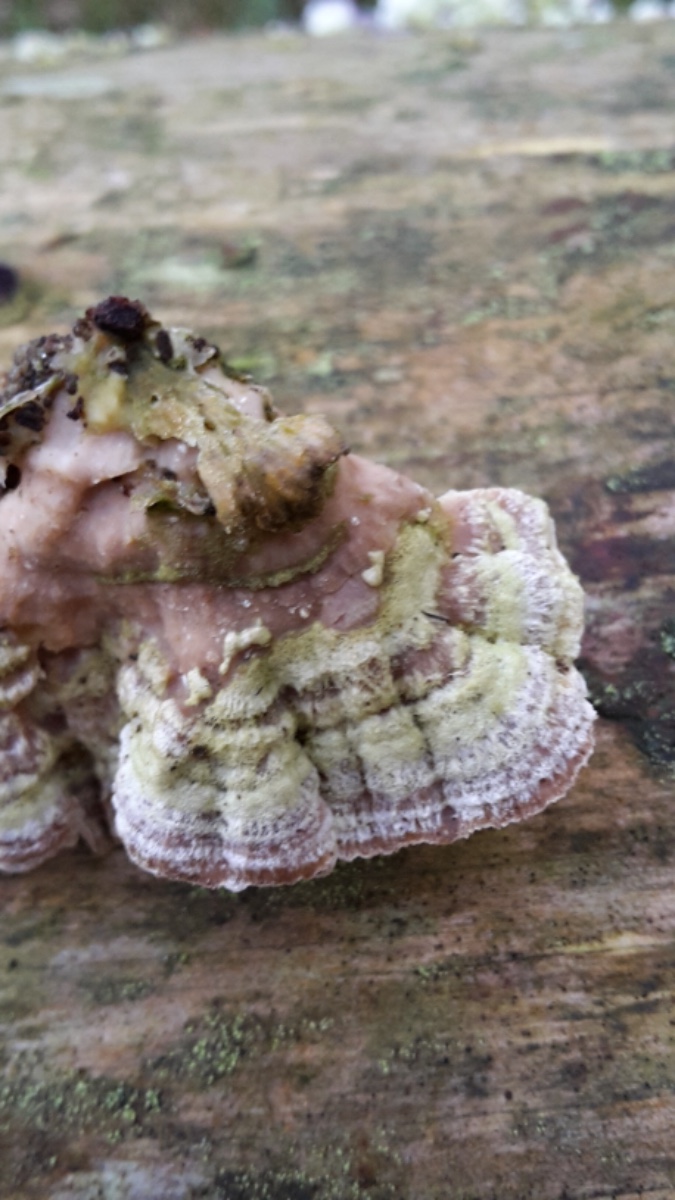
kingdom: Fungi
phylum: Basidiomycota
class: Agaricomycetes
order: Polyporales
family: Incrustoporiaceae
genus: Skeletocutis
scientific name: Skeletocutis carneogrisea
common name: rødgrå krystalporesvamp
